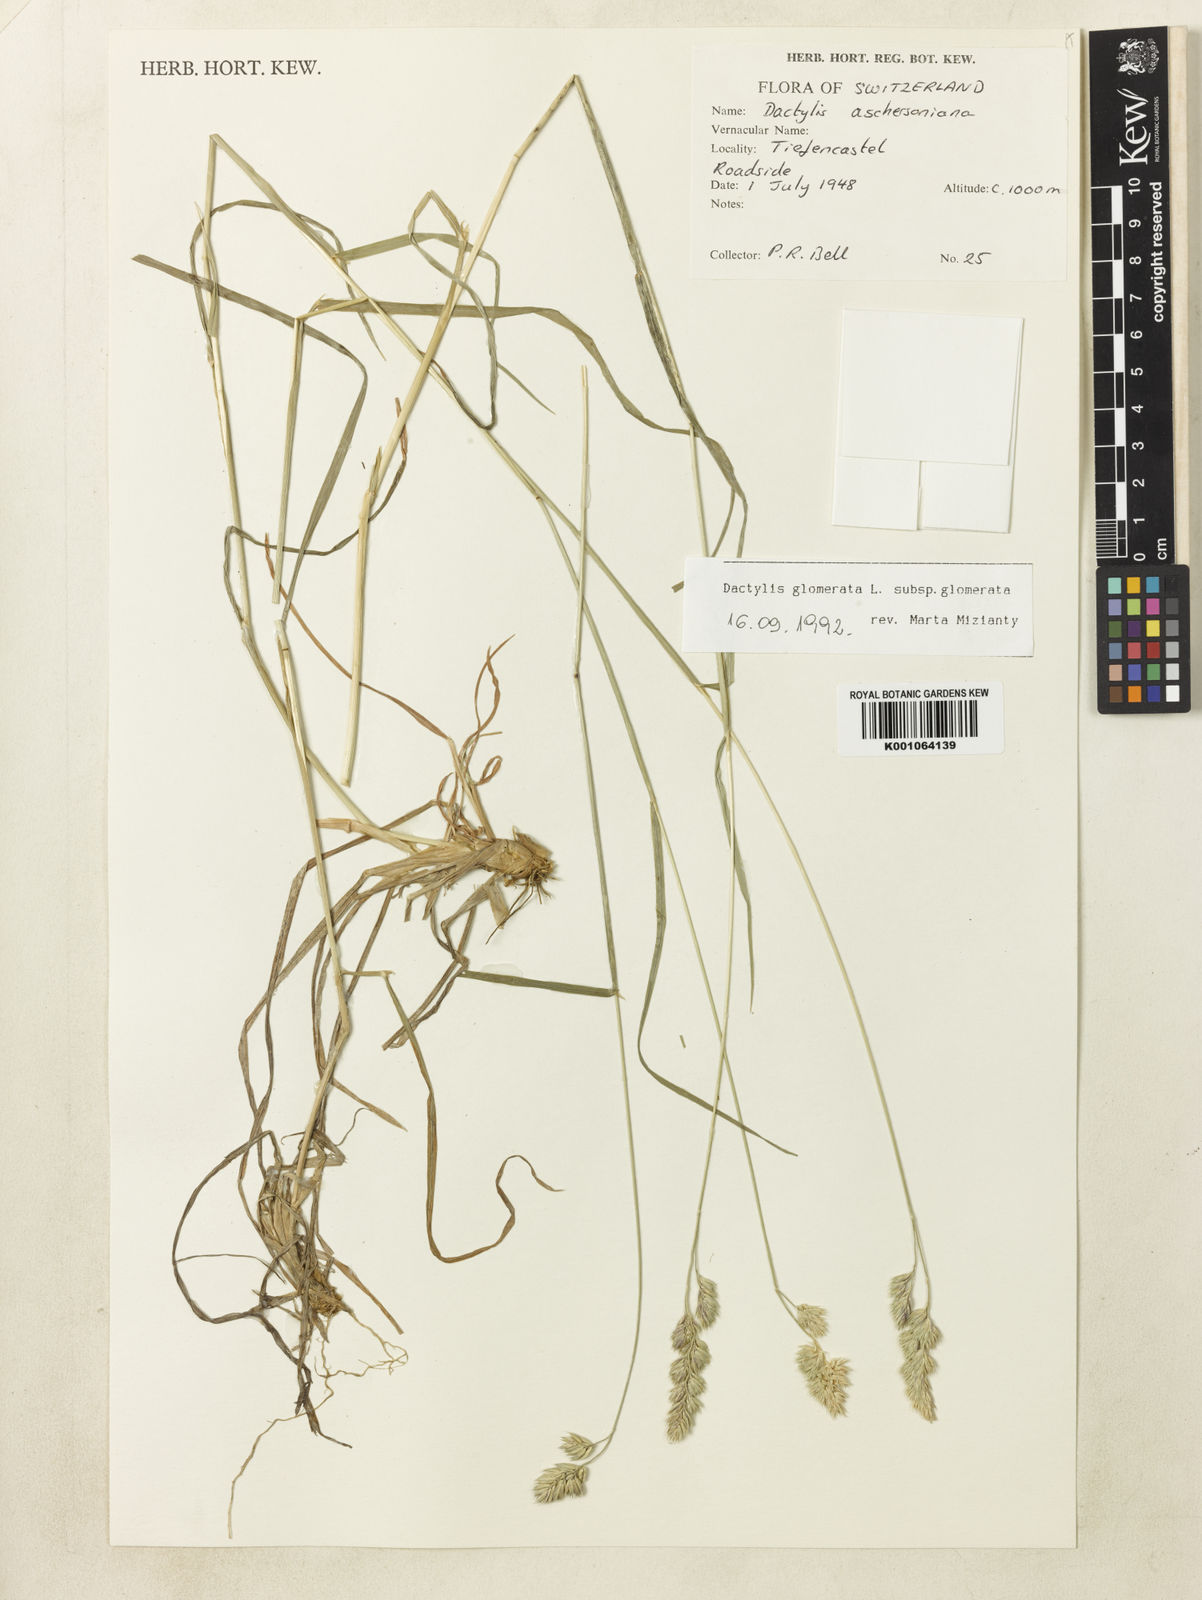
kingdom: Plantae
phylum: Tracheophyta
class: Liliopsida
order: Poales
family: Poaceae
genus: Dactylis
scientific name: Dactylis glomerata
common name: Orchardgrass
